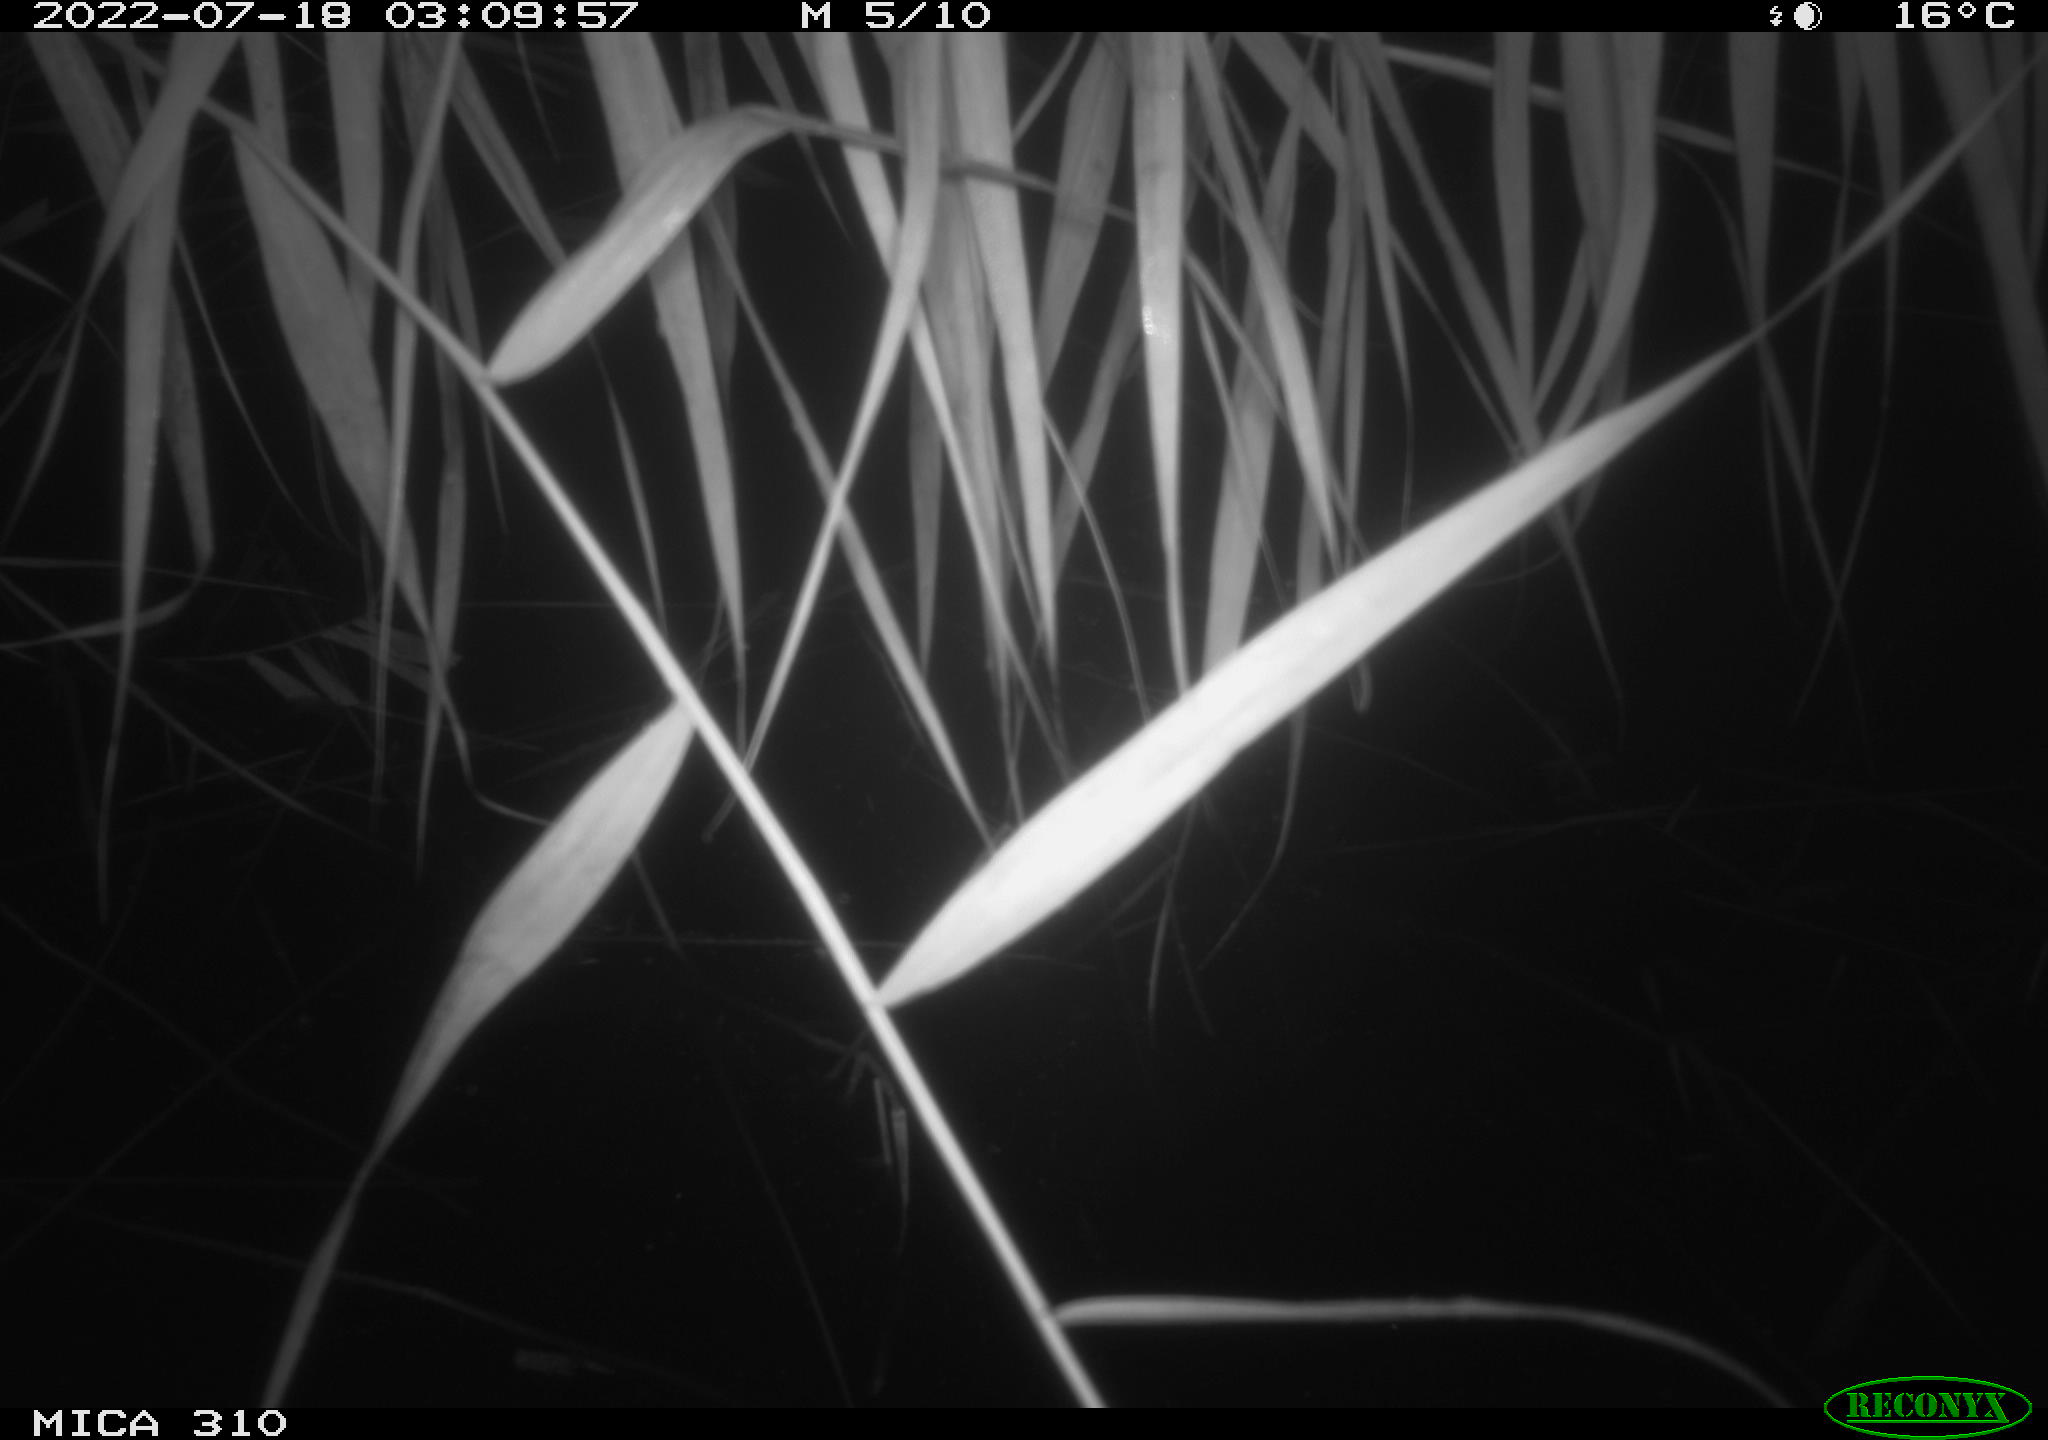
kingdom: Animalia
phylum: Chordata
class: Mammalia
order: Rodentia
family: Cricetidae
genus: Ondatra
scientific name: Ondatra zibethicus
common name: Muskrat
